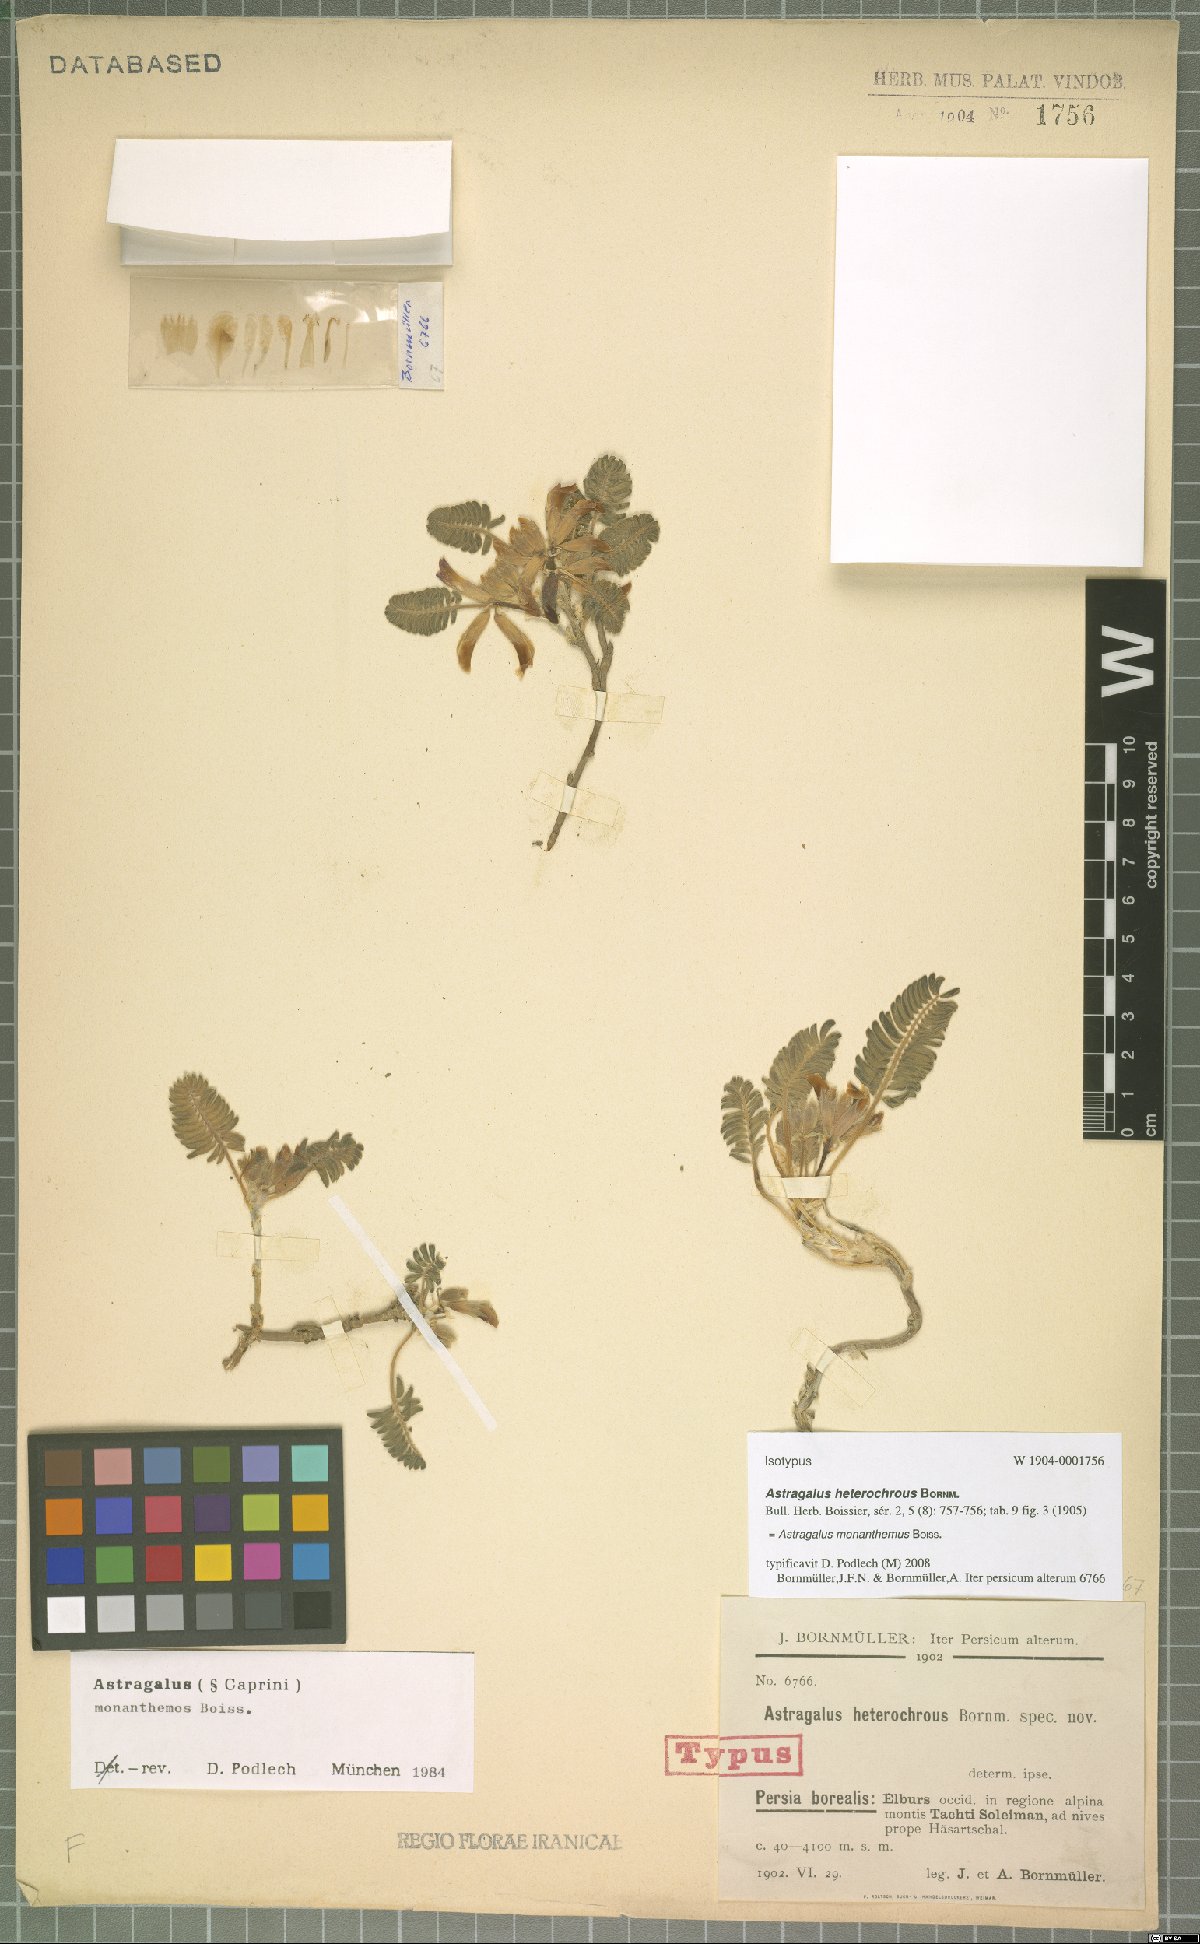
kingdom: Plantae
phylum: Tracheophyta
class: Magnoliopsida
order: Fabales
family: Fabaceae
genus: Astragalus
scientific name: Astragalus monanthemus
